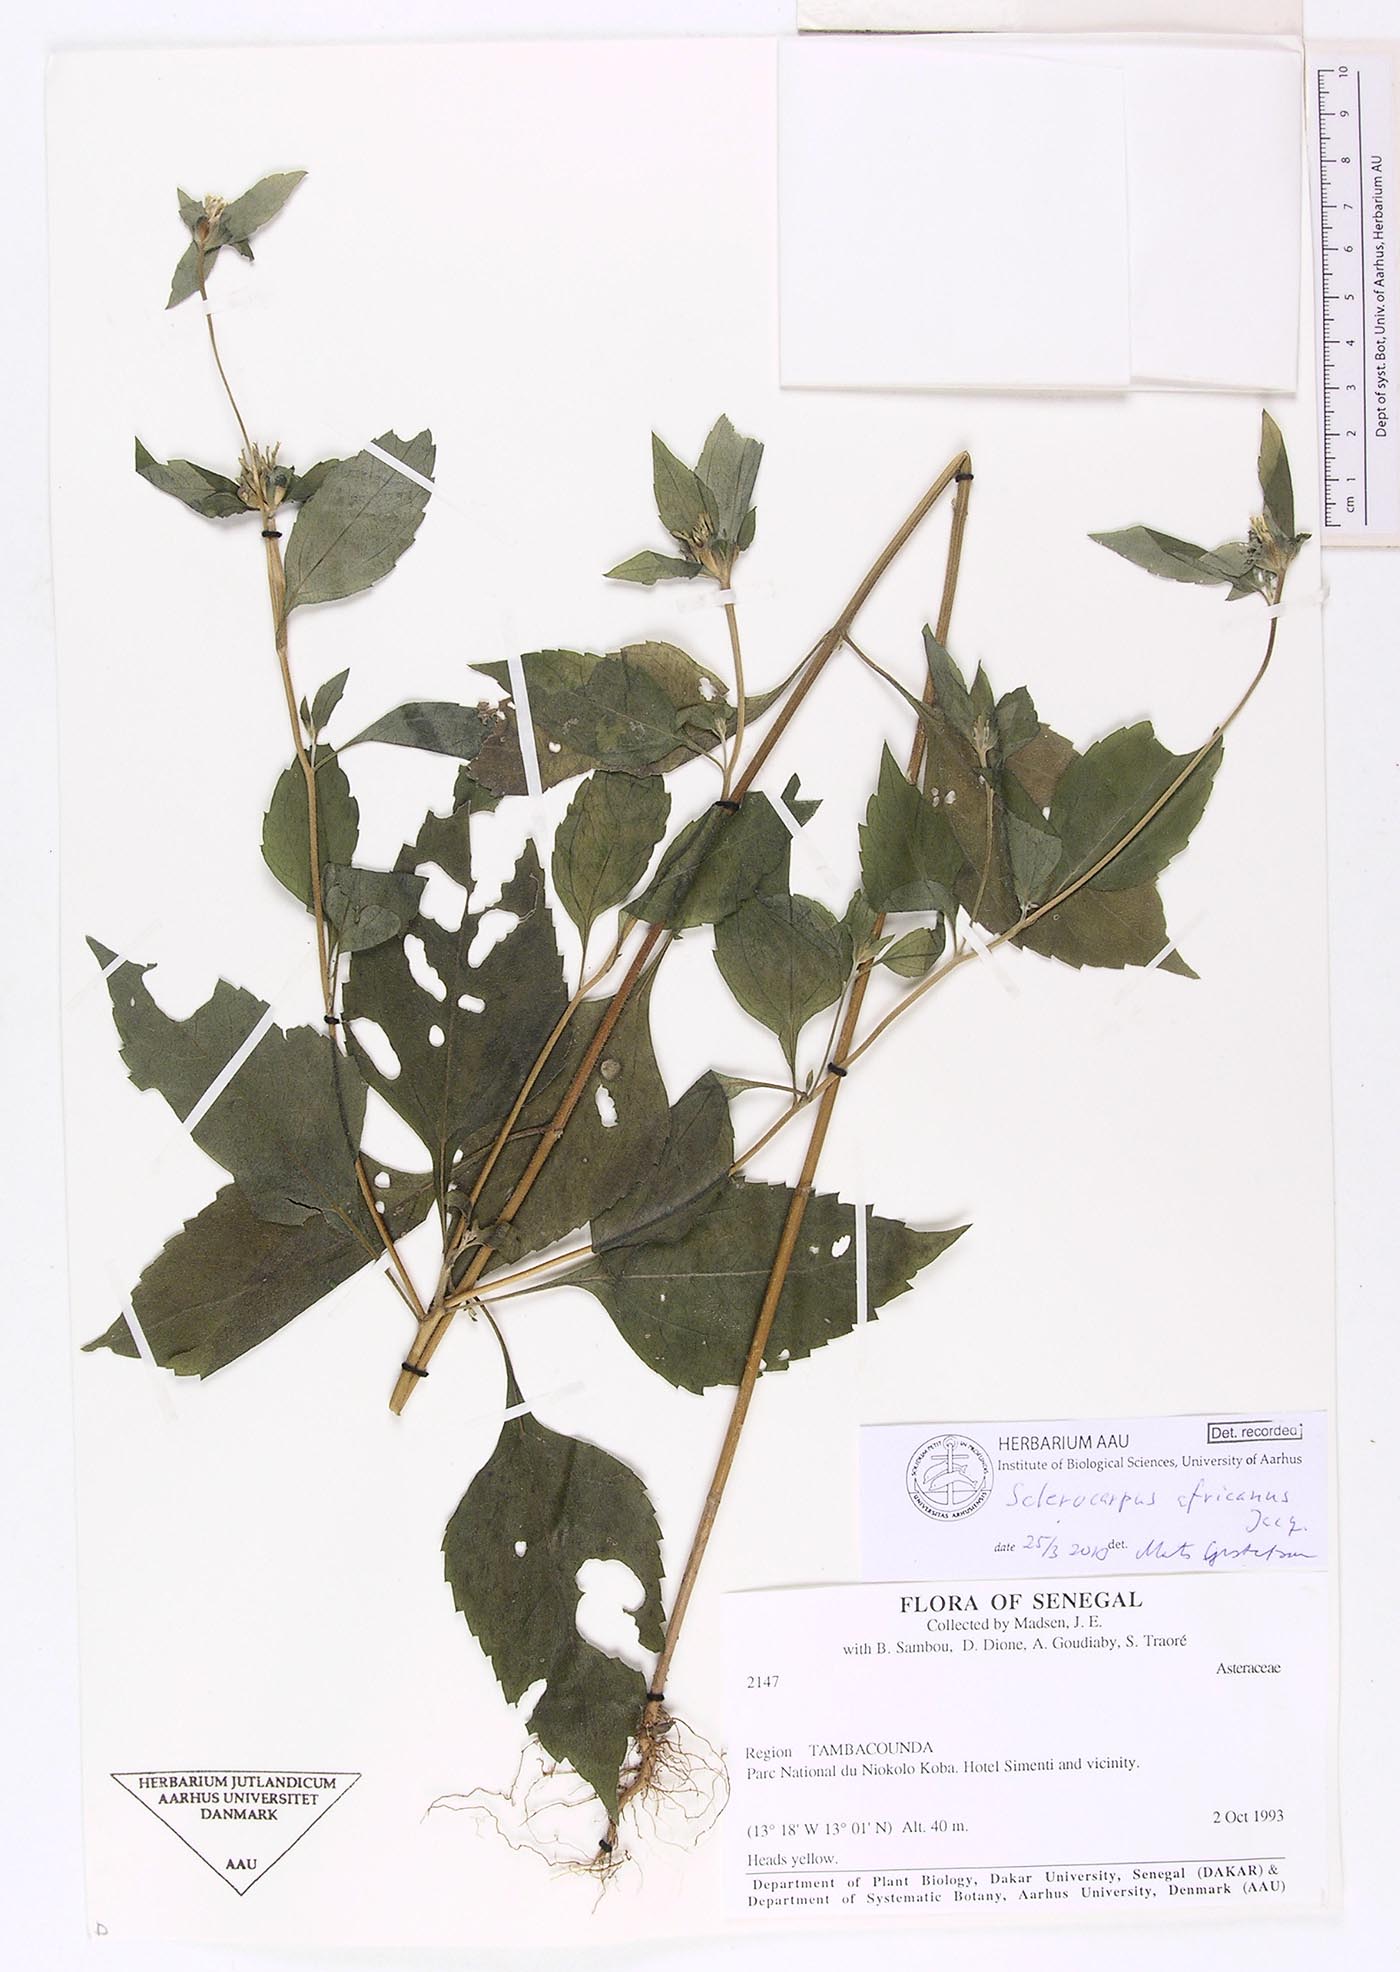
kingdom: Plantae
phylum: Tracheophyta
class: Magnoliopsida
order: Asterales
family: Asteraceae
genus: Sclerocarpus
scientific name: Sclerocarpus africanus
